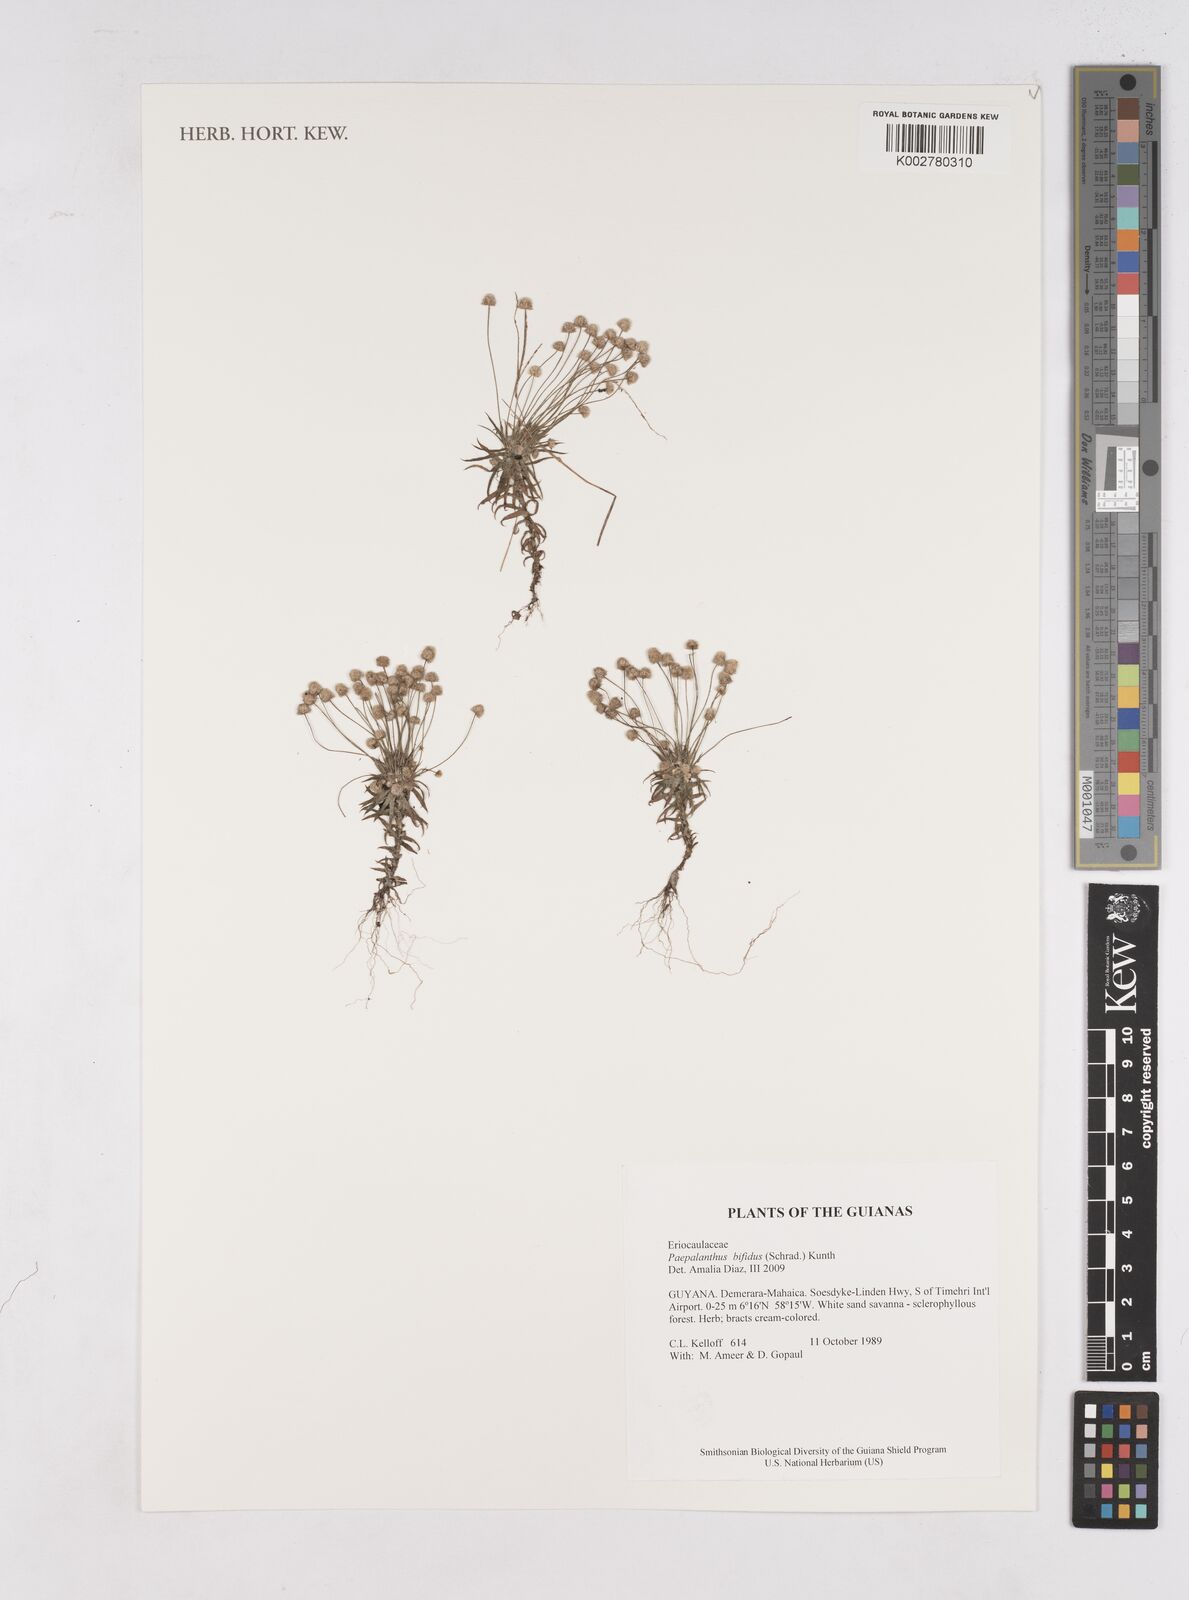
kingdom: Plantae
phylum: Tracheophyta
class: Liliopsida
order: Poales
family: Eriocaulaceae
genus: Paepalanthus
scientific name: Paepalanthus bifidus
